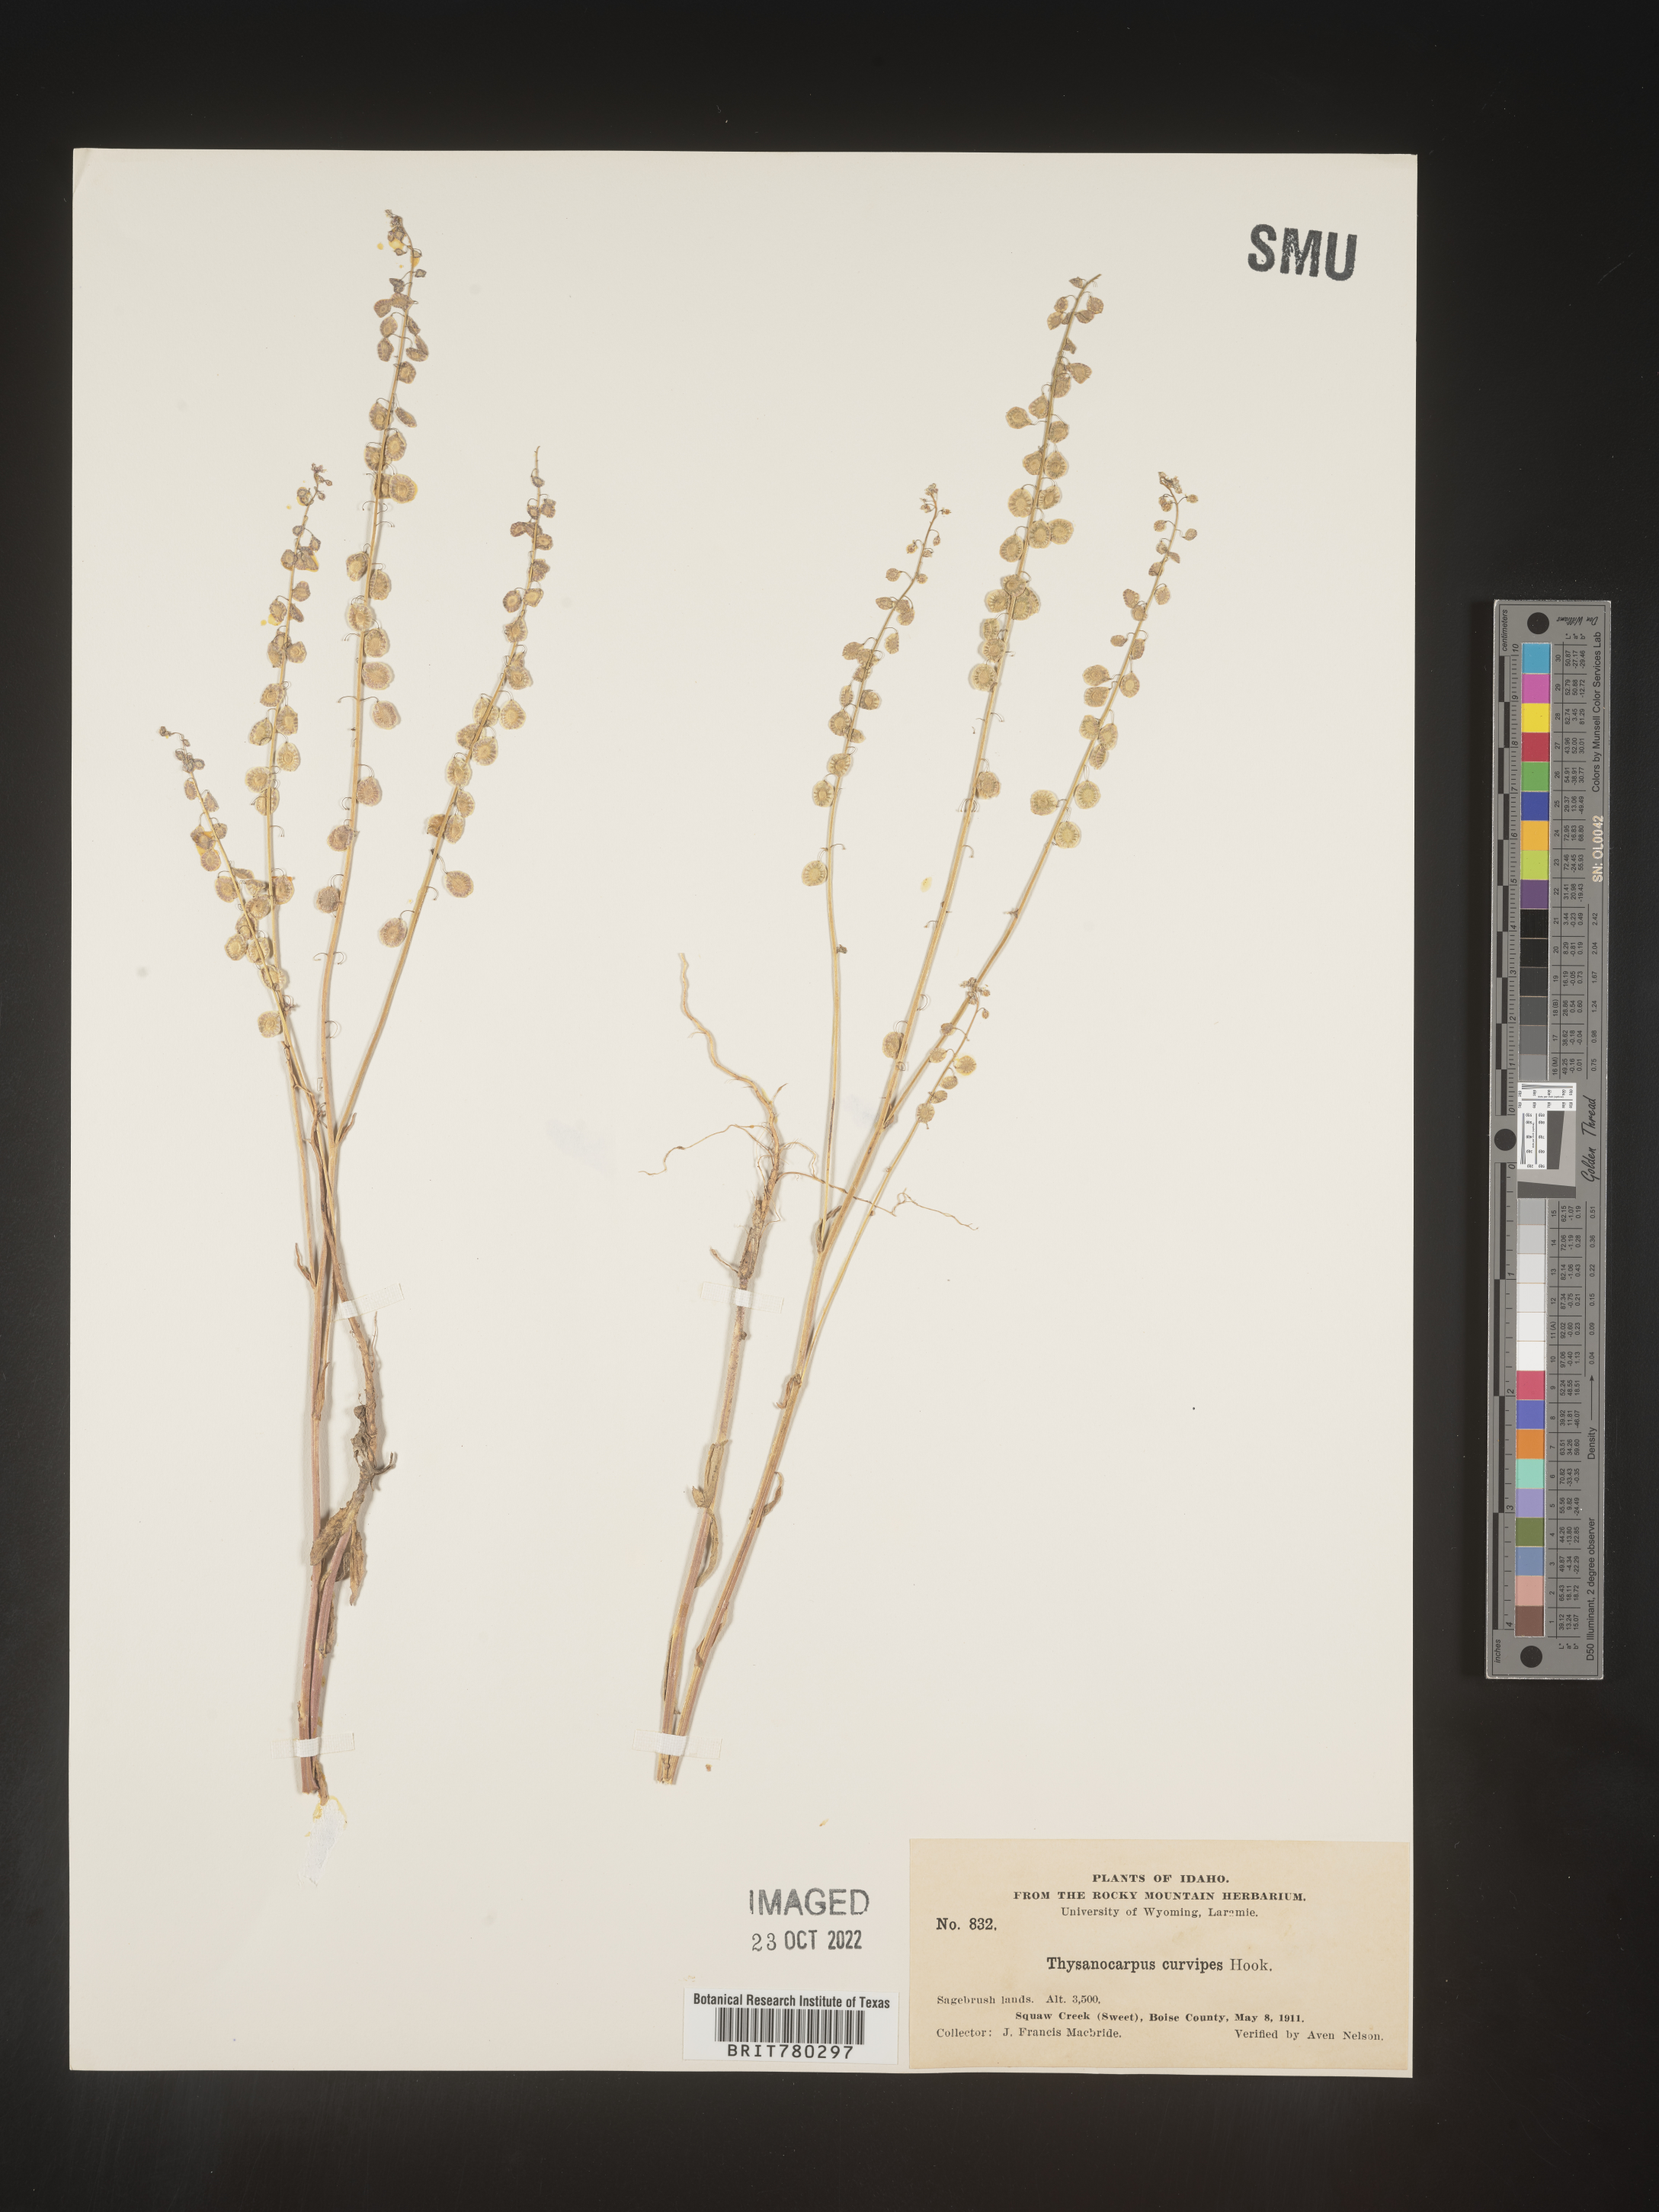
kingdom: Plantae
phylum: Tracheophyta
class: Magnoliopsida
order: Brassicales
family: Brassicaceae
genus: Thysanocarpus
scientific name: Thysanocarpus
